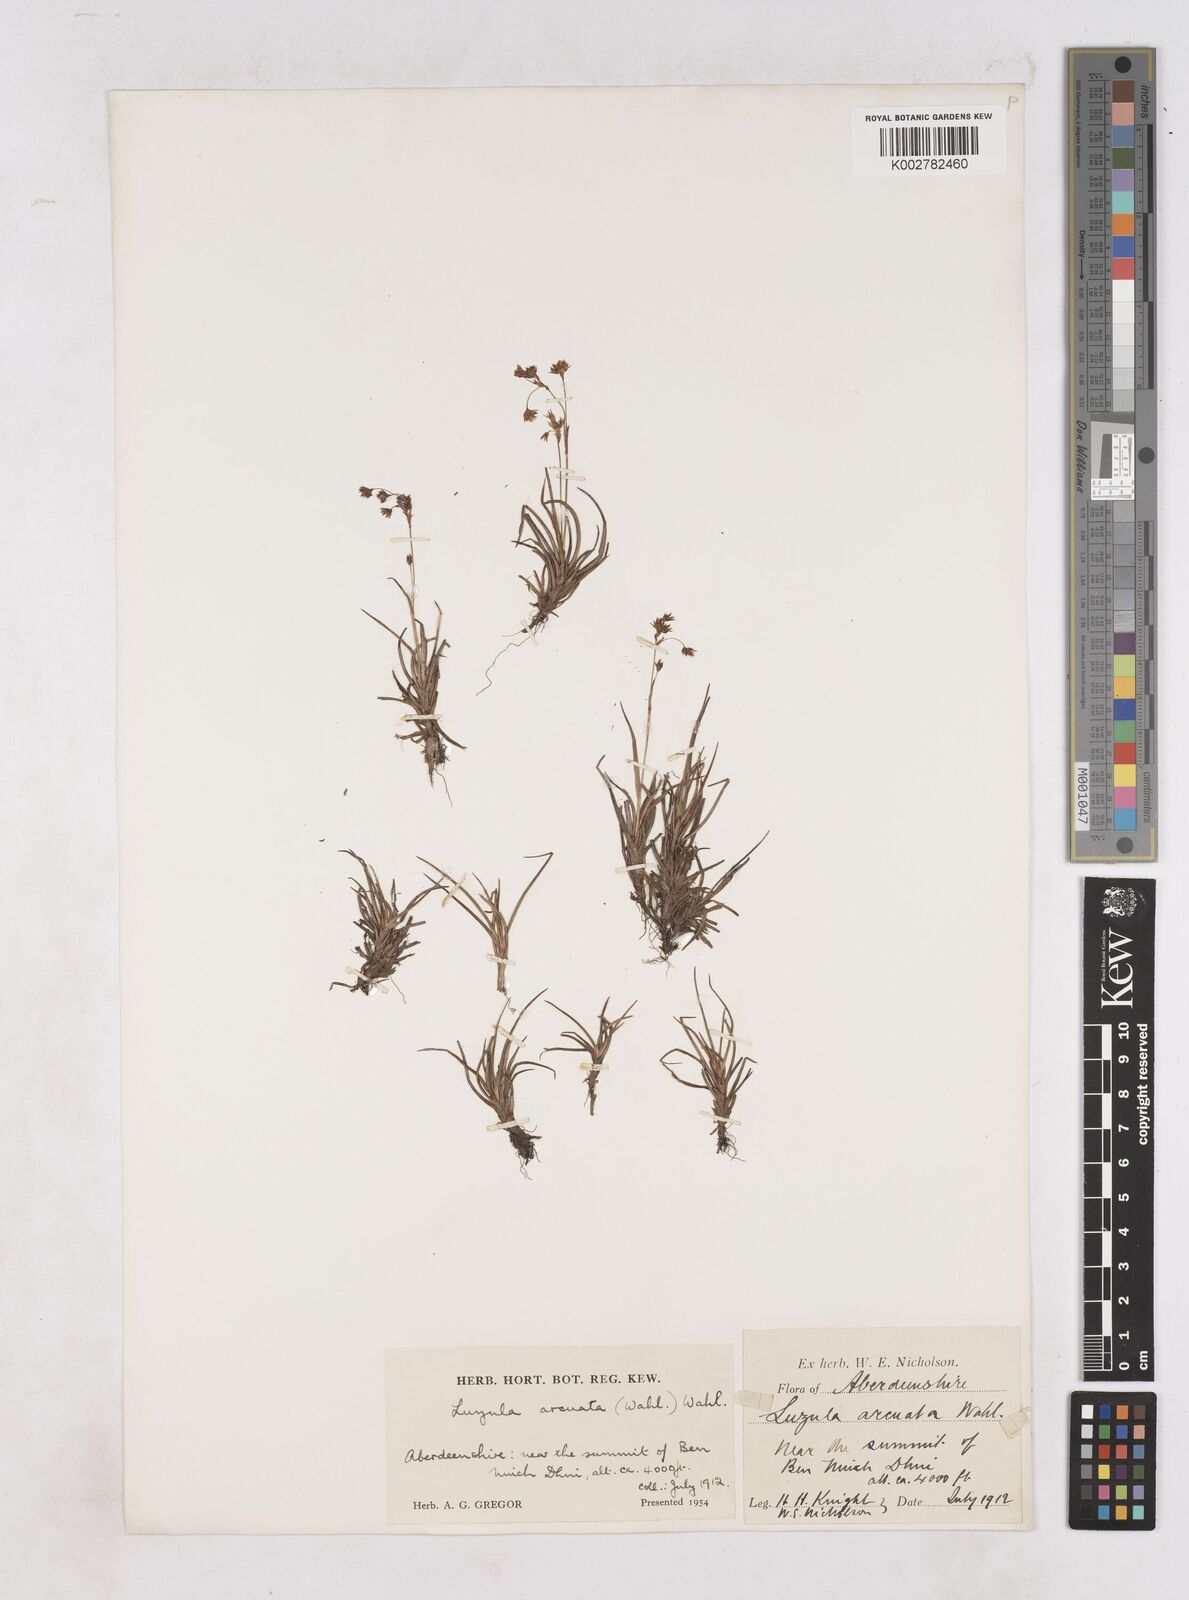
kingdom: Plantae
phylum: Tracheophyta
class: Liliopsida
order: Poales
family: Juncaceae
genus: Luzula
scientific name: Luzula arcuata
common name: Curved wood-rush
